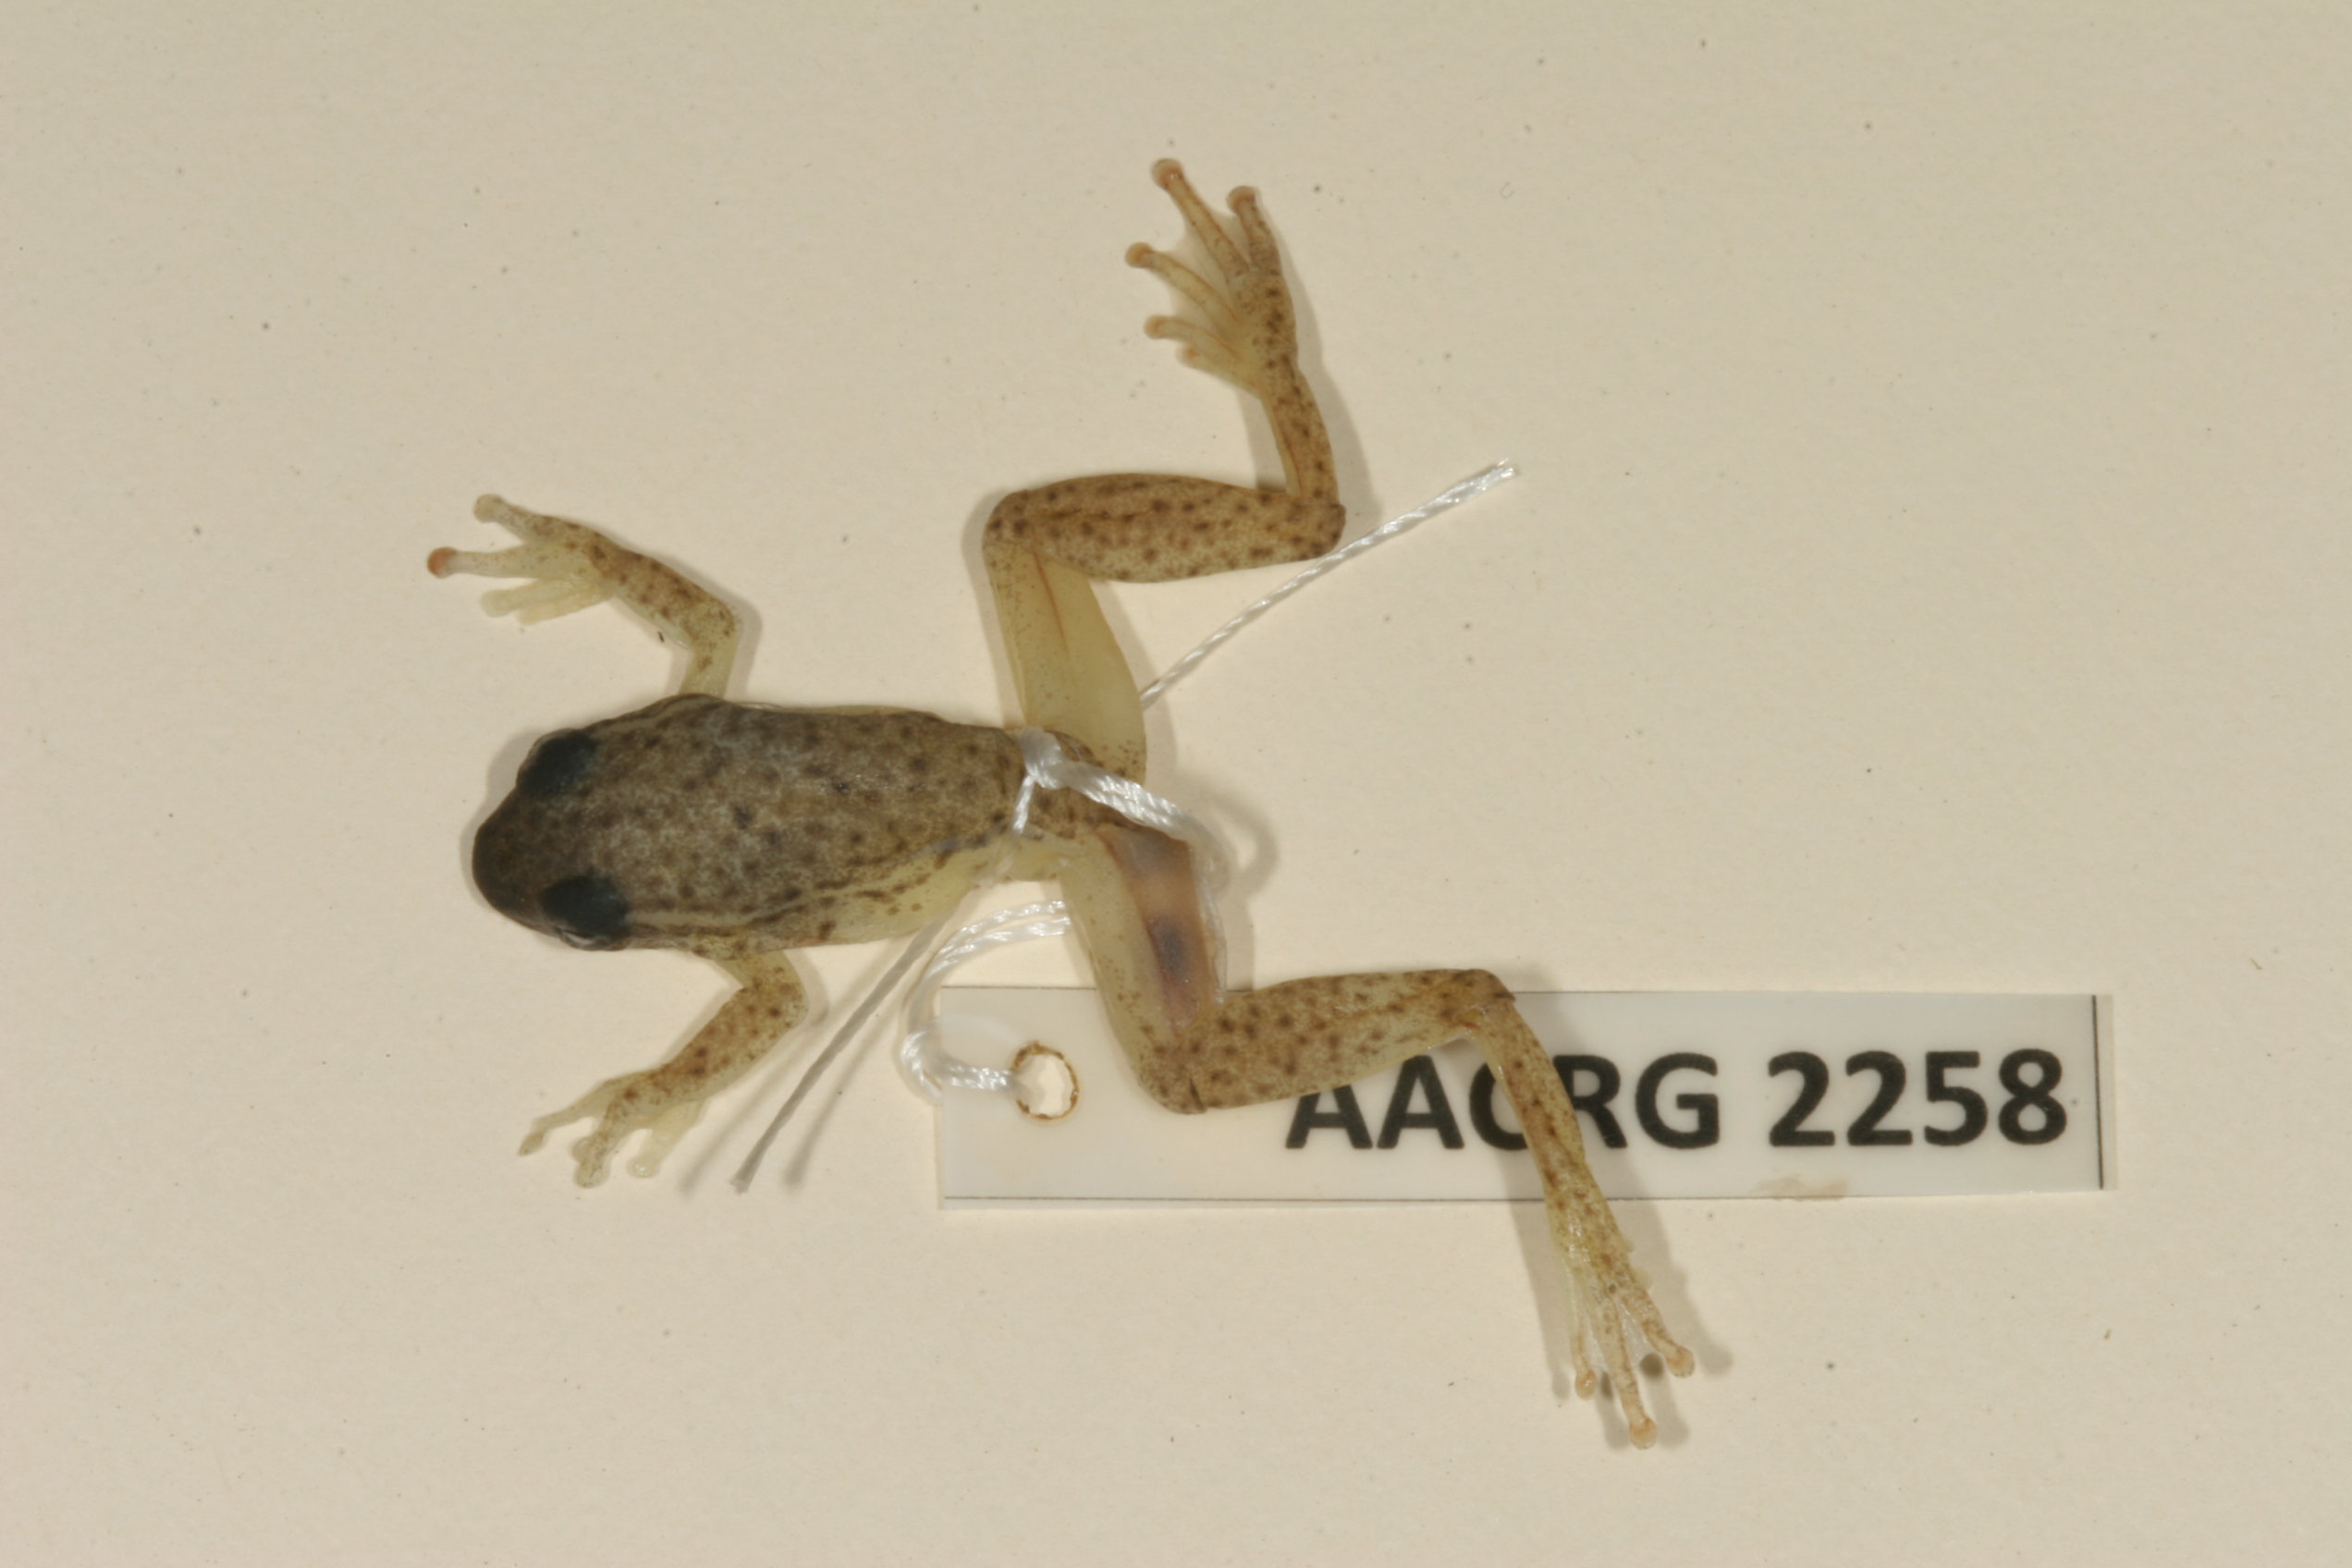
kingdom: Animalia
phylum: Chordata
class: Amphibia
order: Anura
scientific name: Anura
